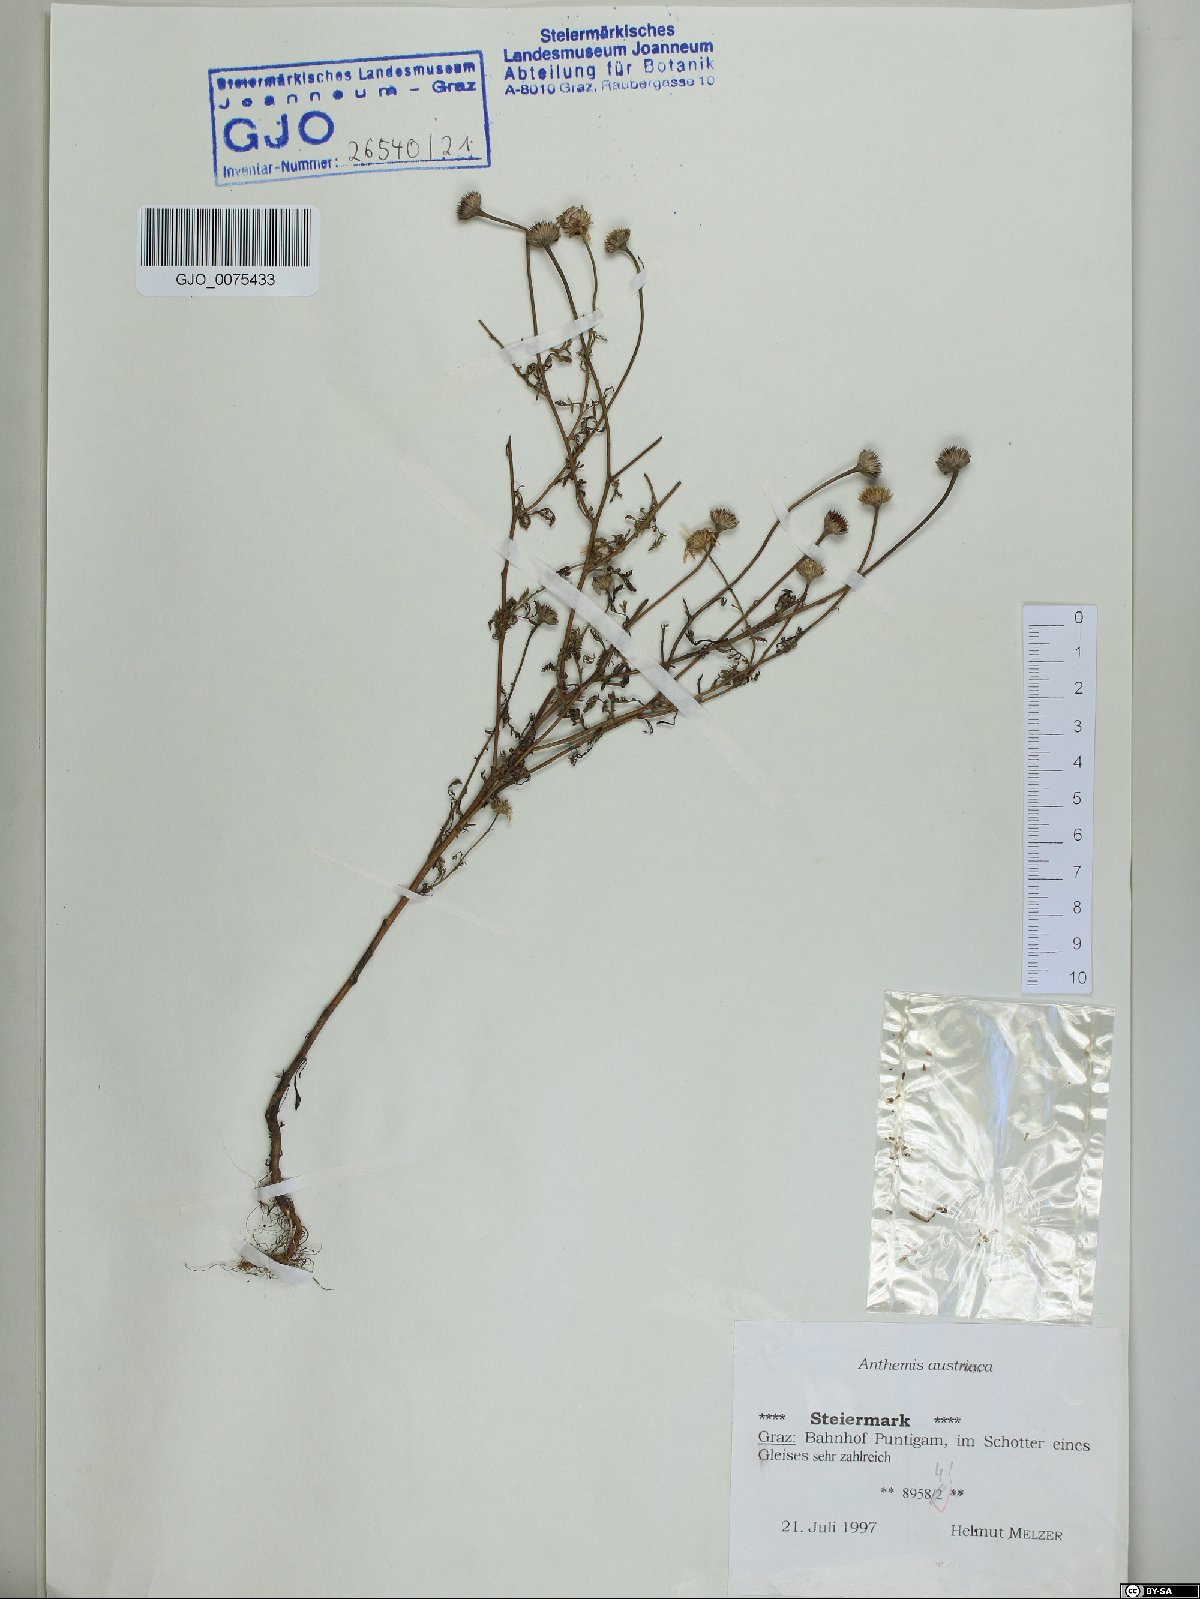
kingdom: Plantae
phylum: Tracheophyta
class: Magnoliopsida
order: Asterales
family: Asteraceae
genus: Cota
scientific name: Cota austriaca
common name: Austrian chamomile
